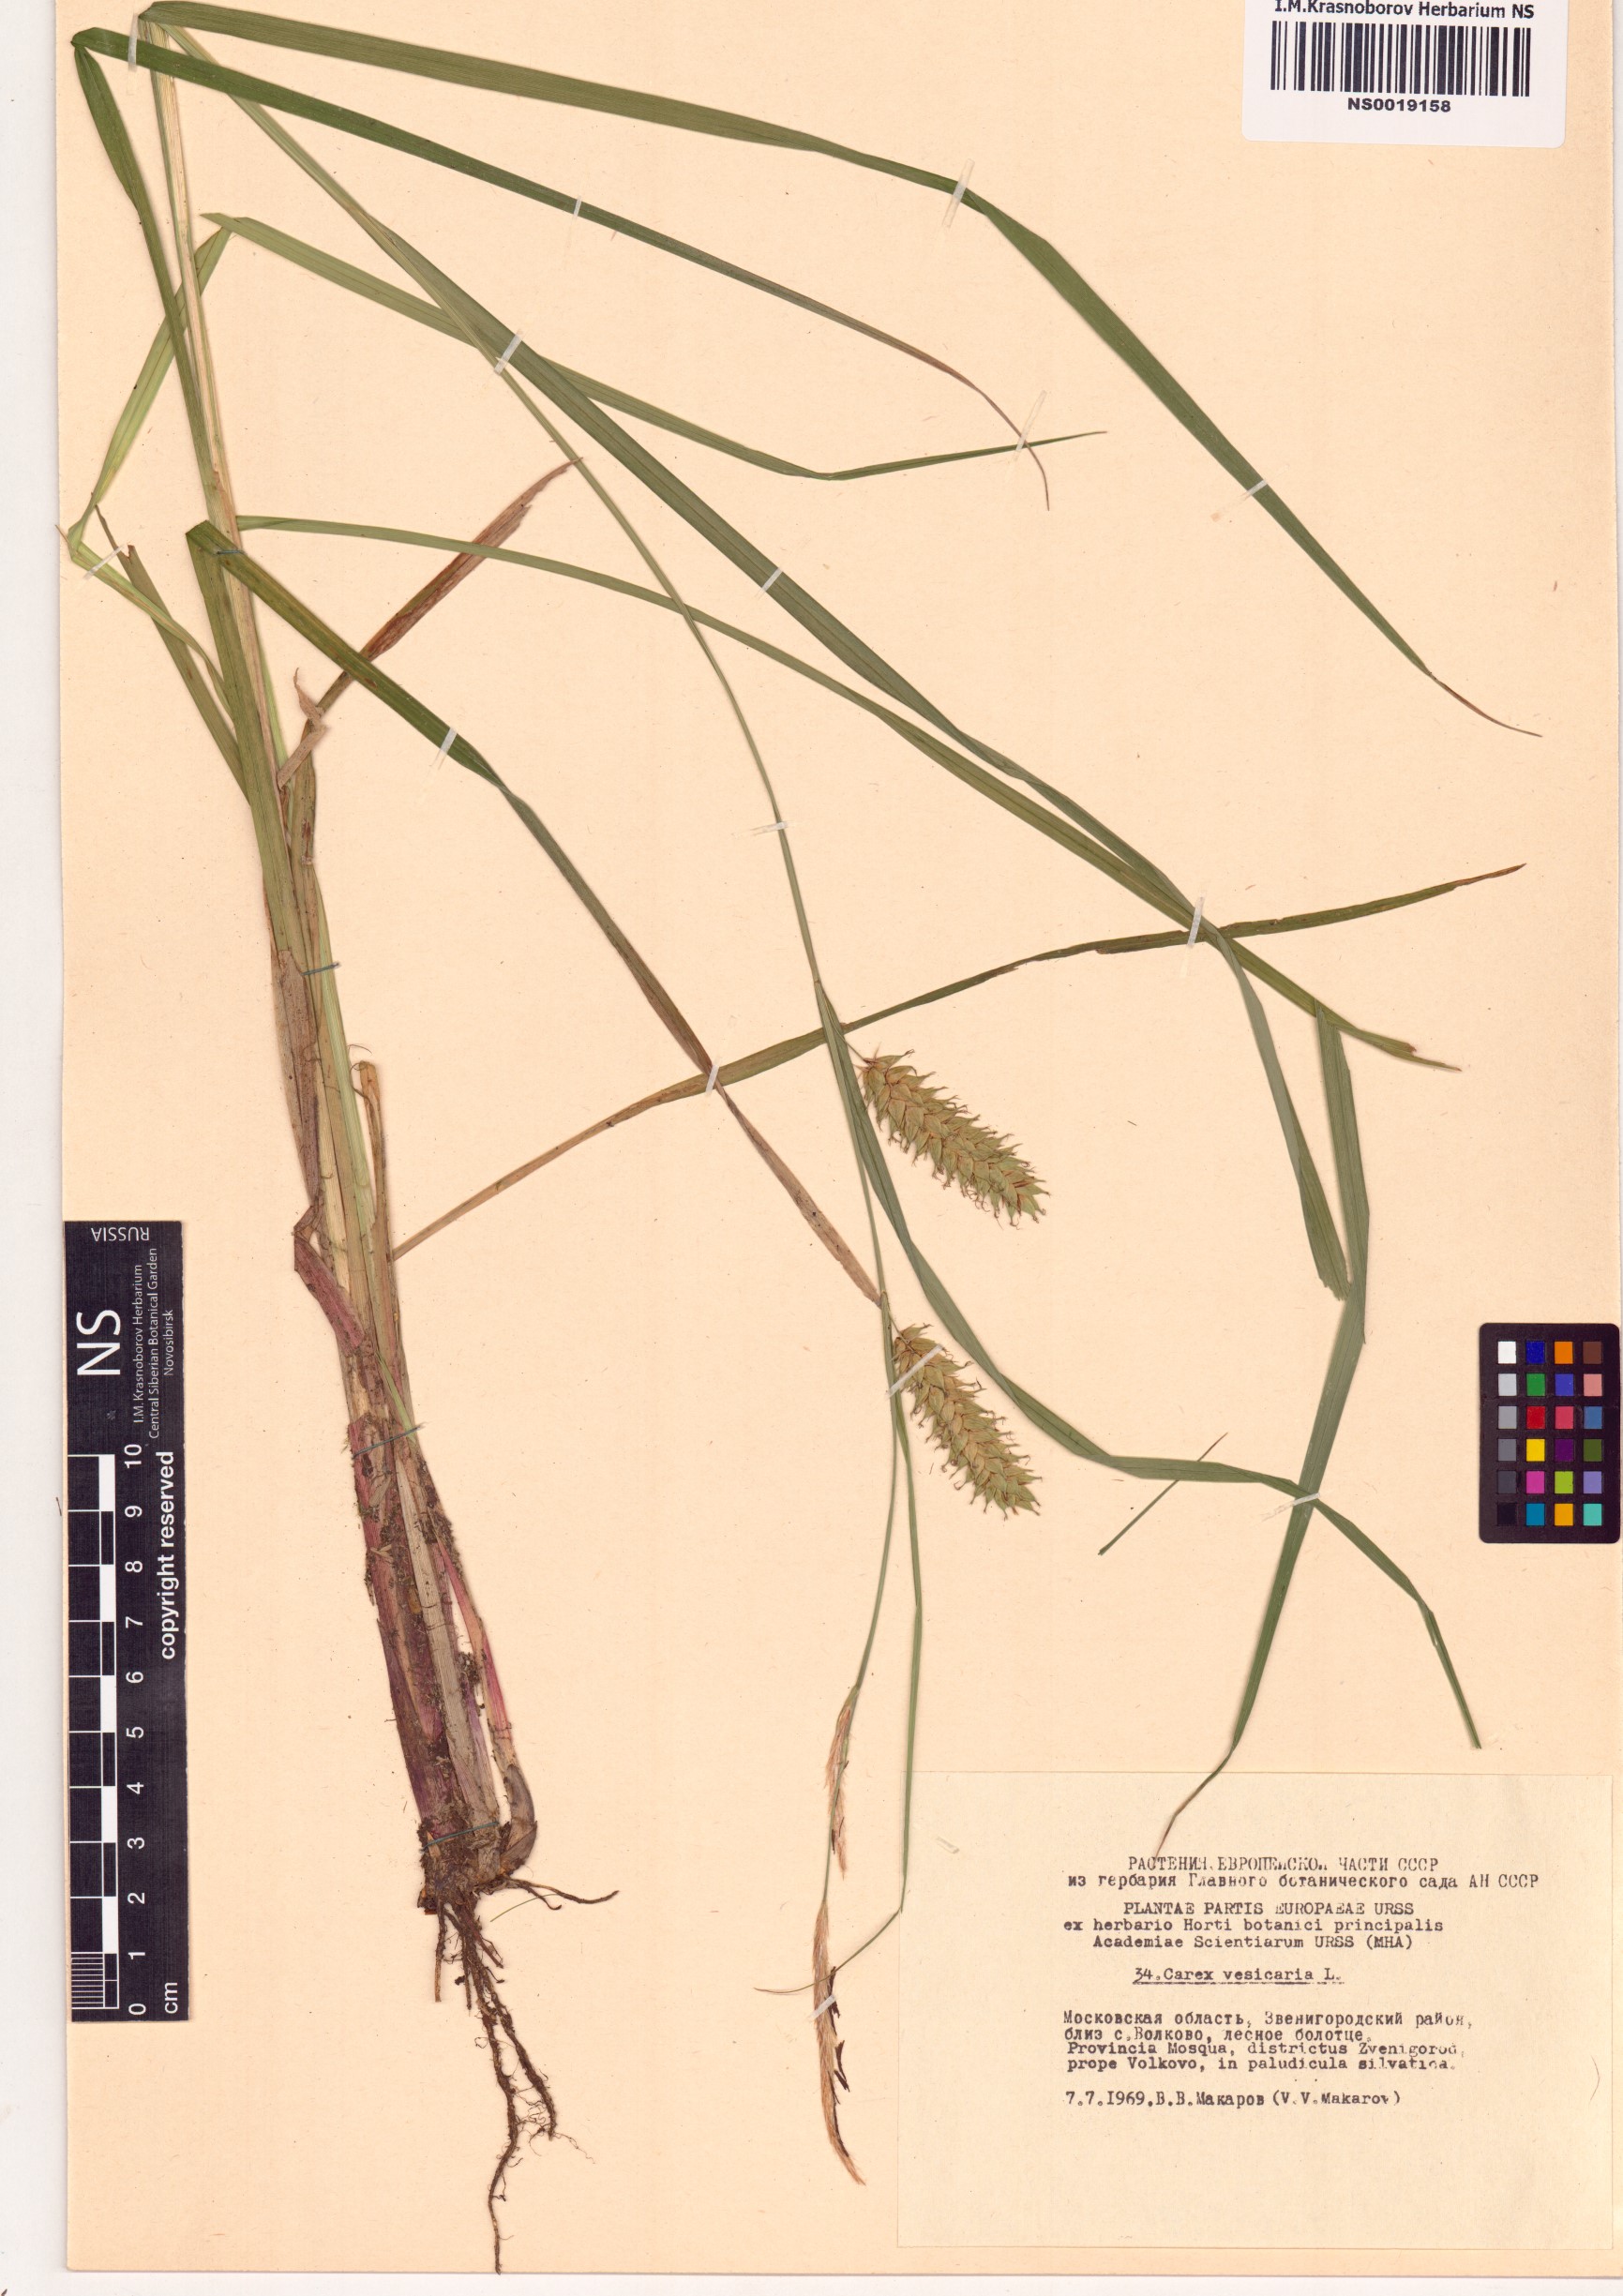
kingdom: Plantae
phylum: Tracheophyta
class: Liliopsida
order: Poales
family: Cyperaceae
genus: Carex
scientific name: Carex vesicaria
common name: Bladder-sedge
